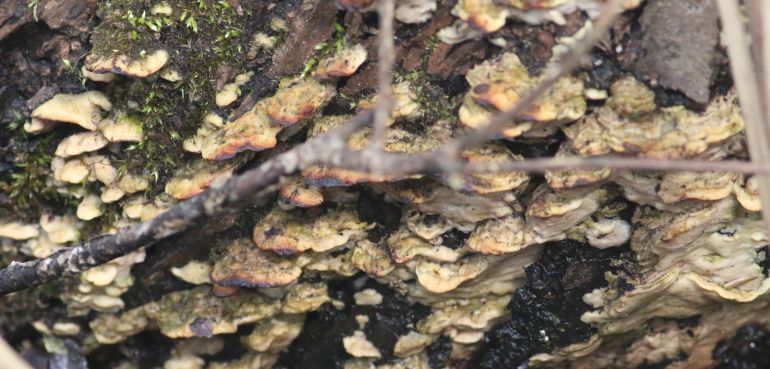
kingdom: Fungi
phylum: Basidiomycota
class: Agaricomycetes
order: Hymenochaetales
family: Oxyporaceae
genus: Oxyporus
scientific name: Oxyporus populinus
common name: sammenvokset trylleporesvamp
